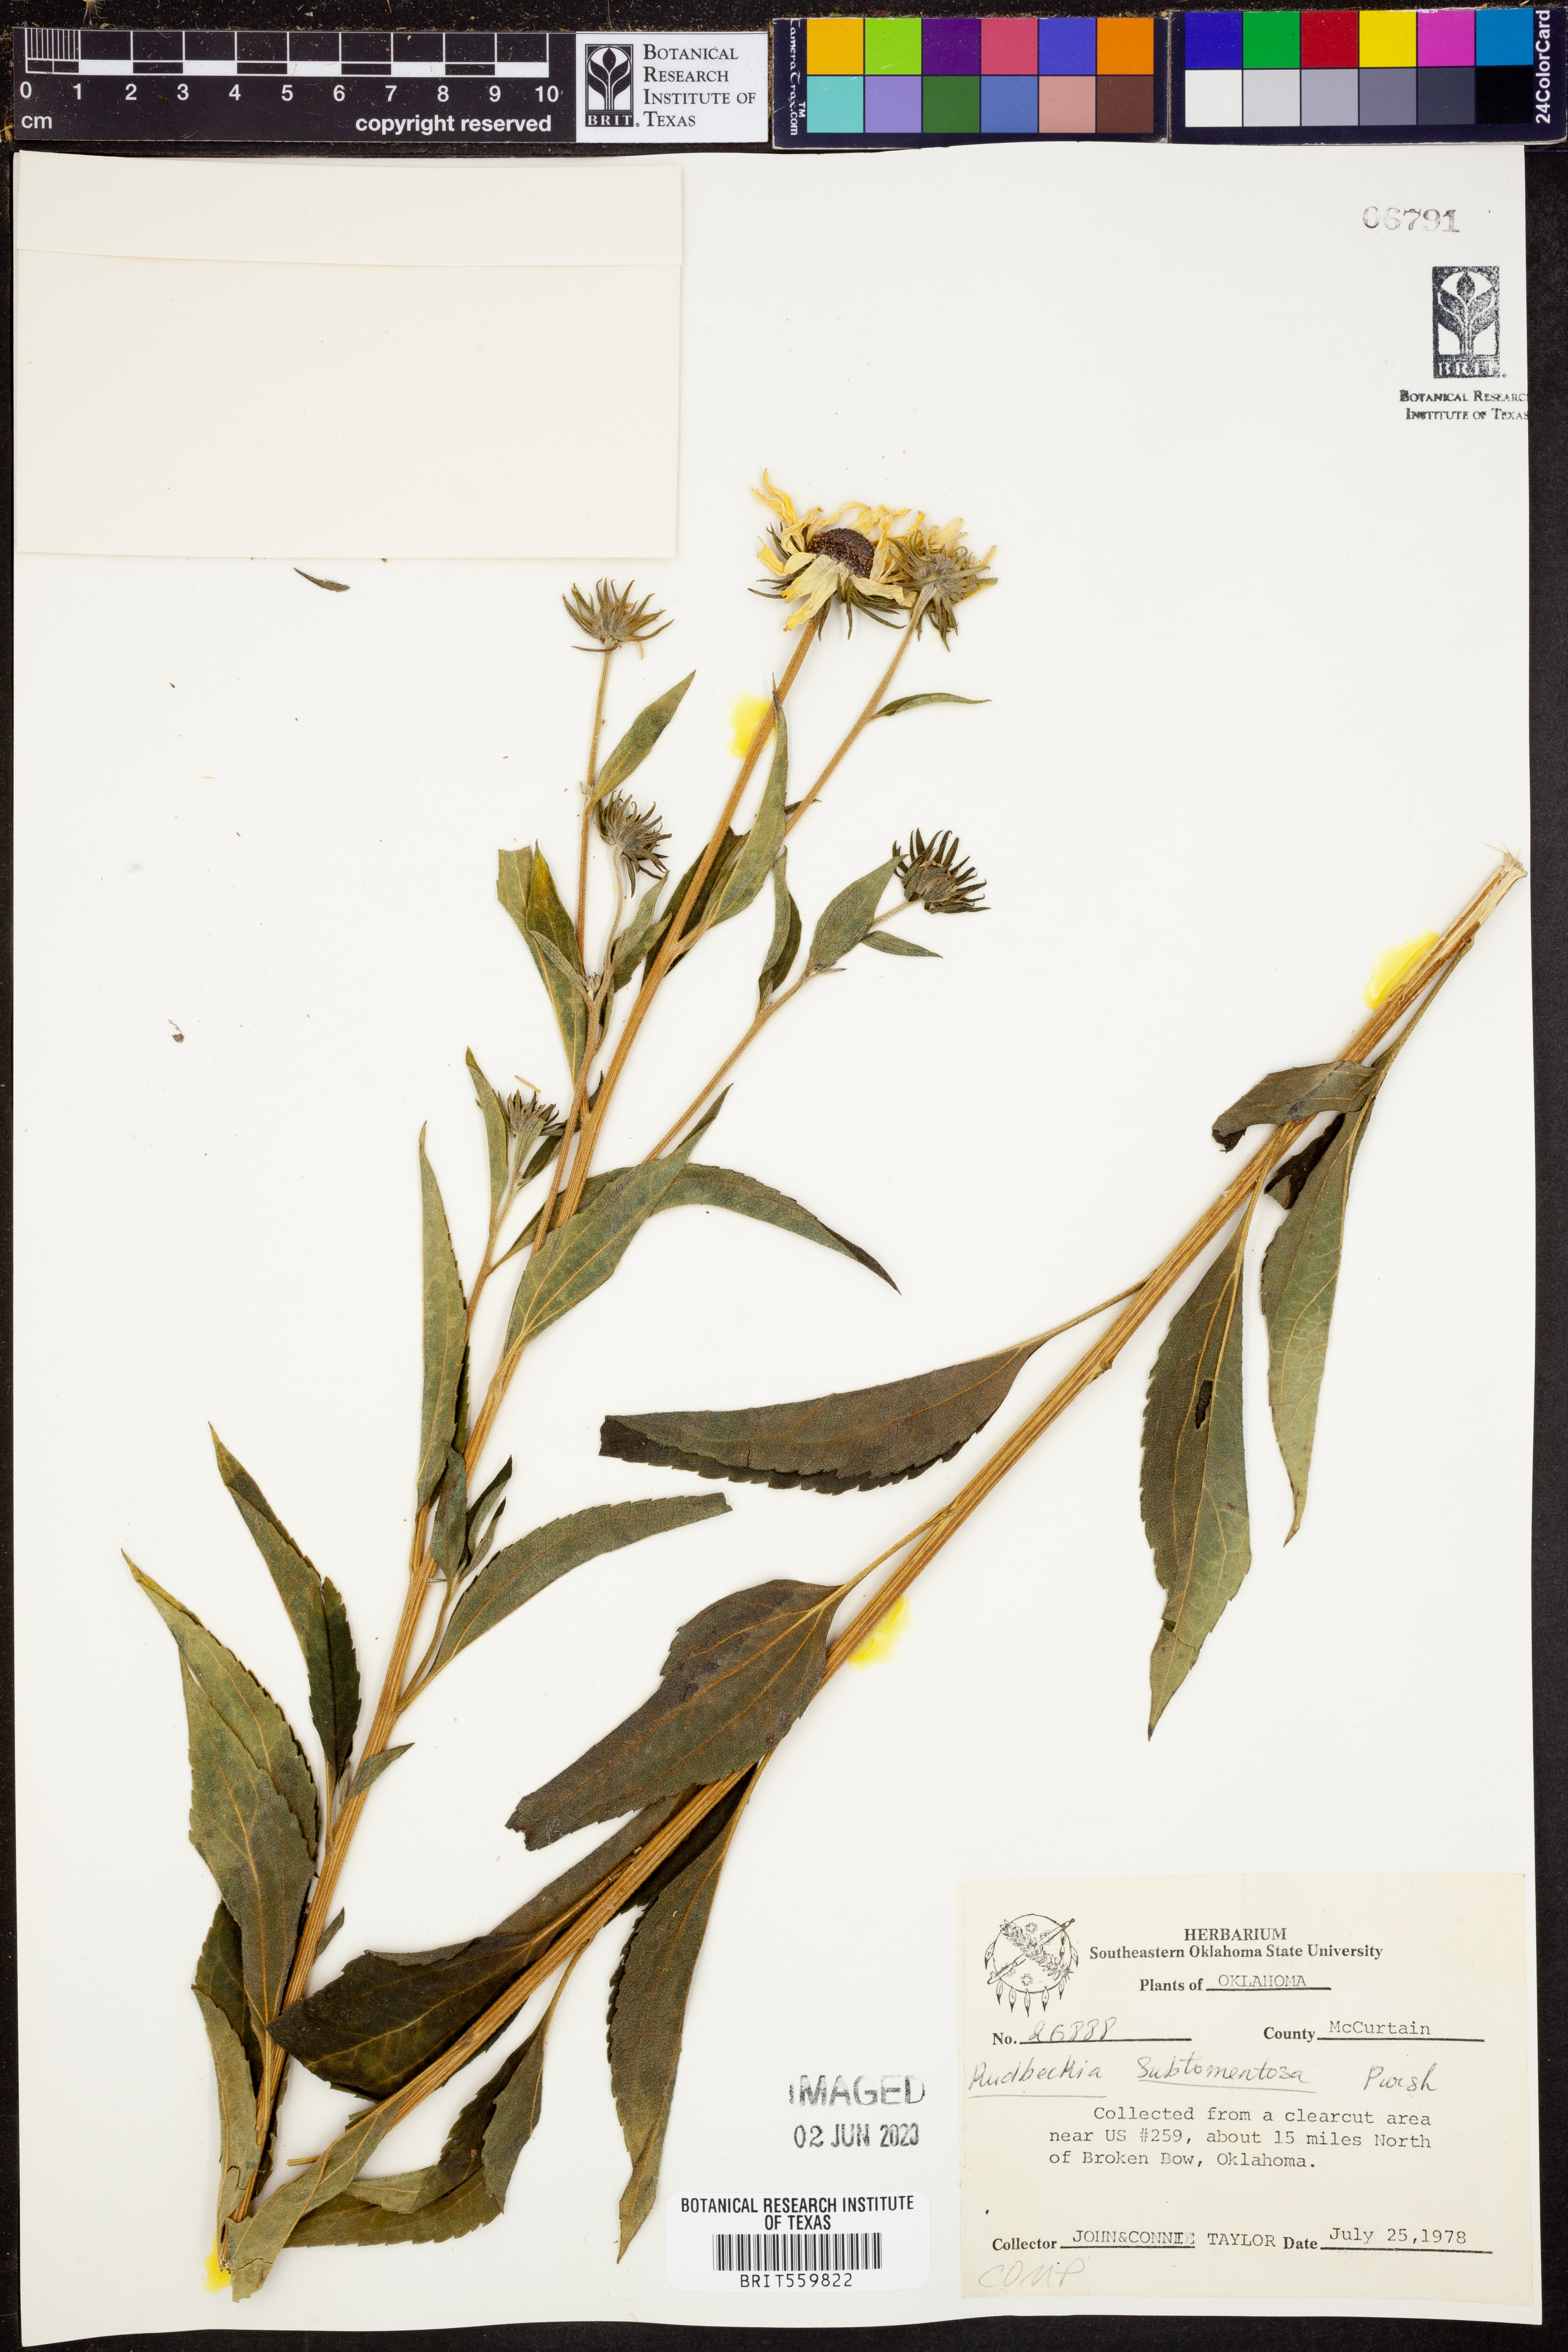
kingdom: Plantae
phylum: Tracheophyta
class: Magnoliopsida
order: Asterales
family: Asteraceae
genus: Rudbeckia
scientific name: Rudbeckia subtomentosa
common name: Sweet coneflower
